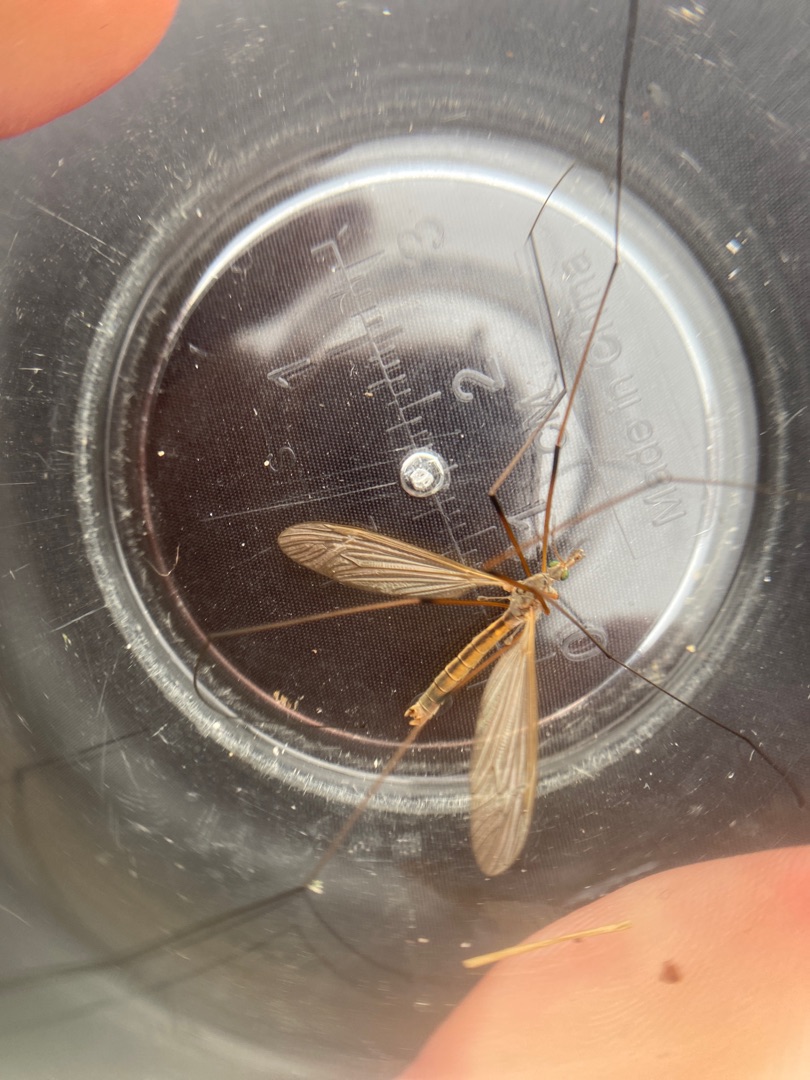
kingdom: Animalia
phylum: Arthropoda
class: Insecta
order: Diptera
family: Tipulidae
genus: Tipula
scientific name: Tipula luteipennis
